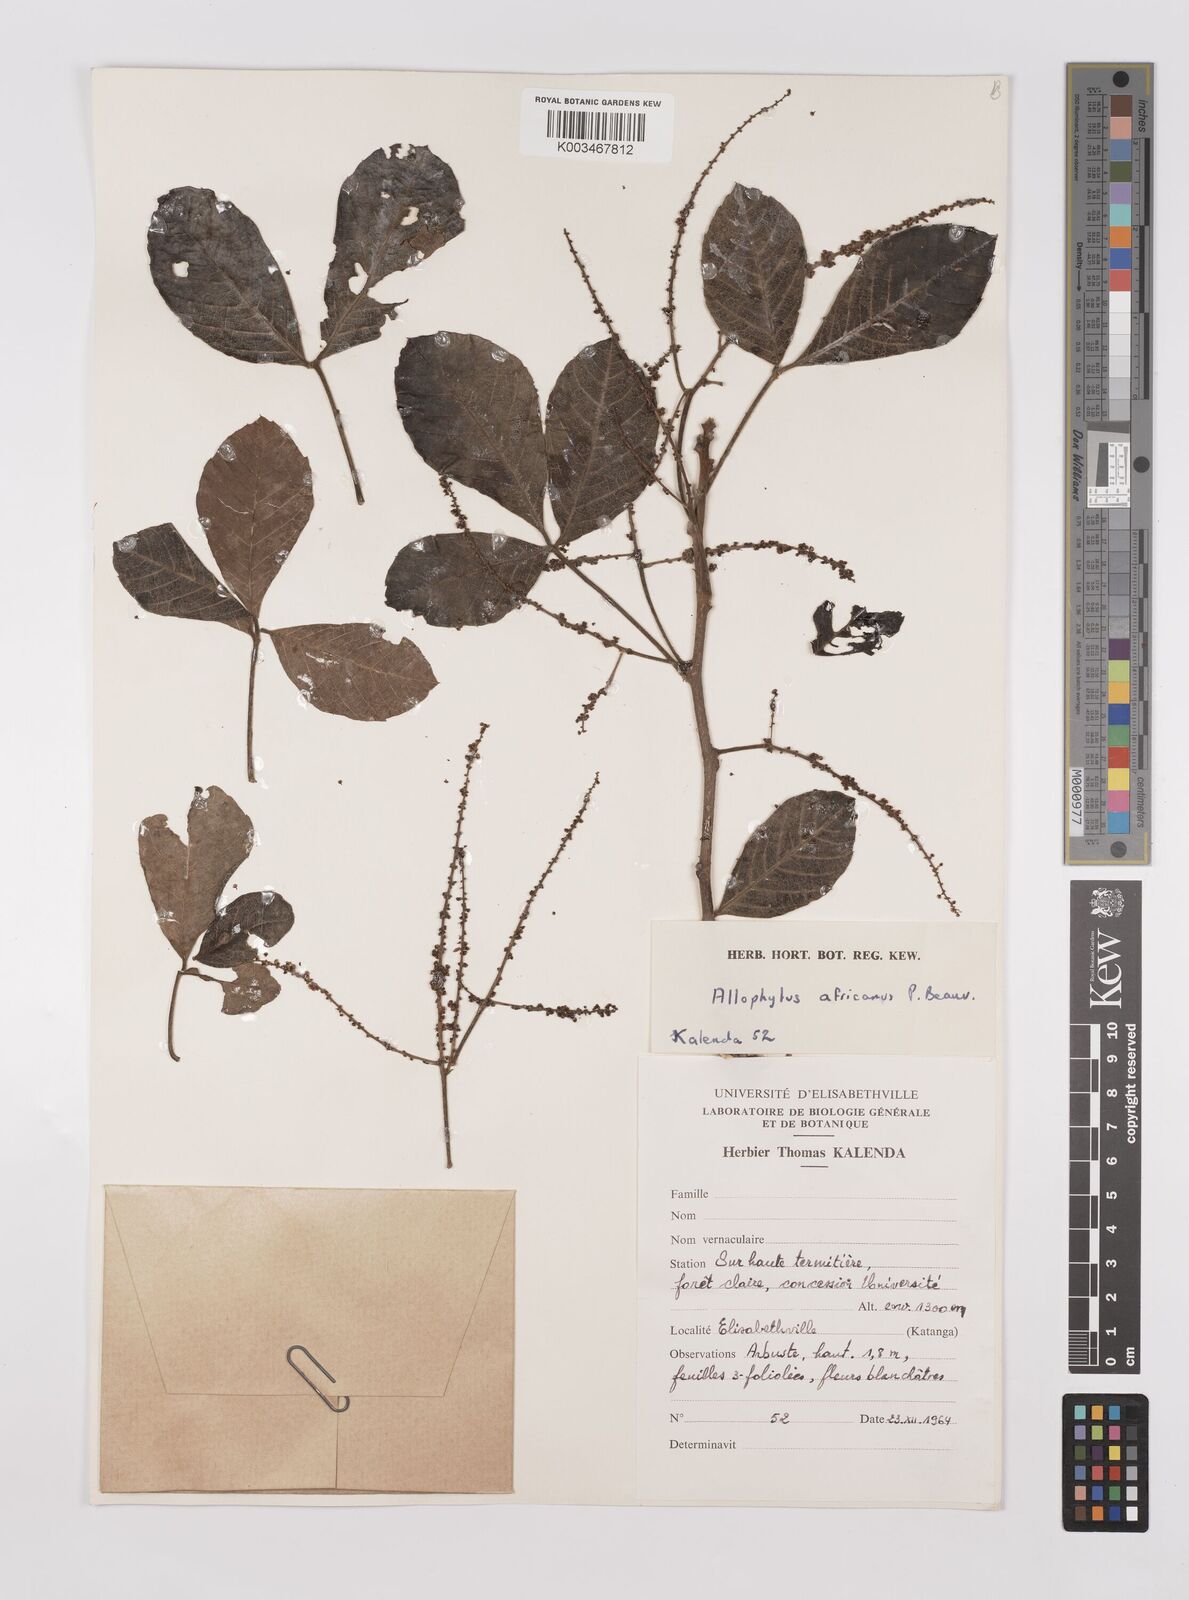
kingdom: Plantae
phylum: Tracheophyta
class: Magnoliopsida
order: Sapindales
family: Sapindaceae
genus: Allophylus
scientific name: Allophylus africanus
